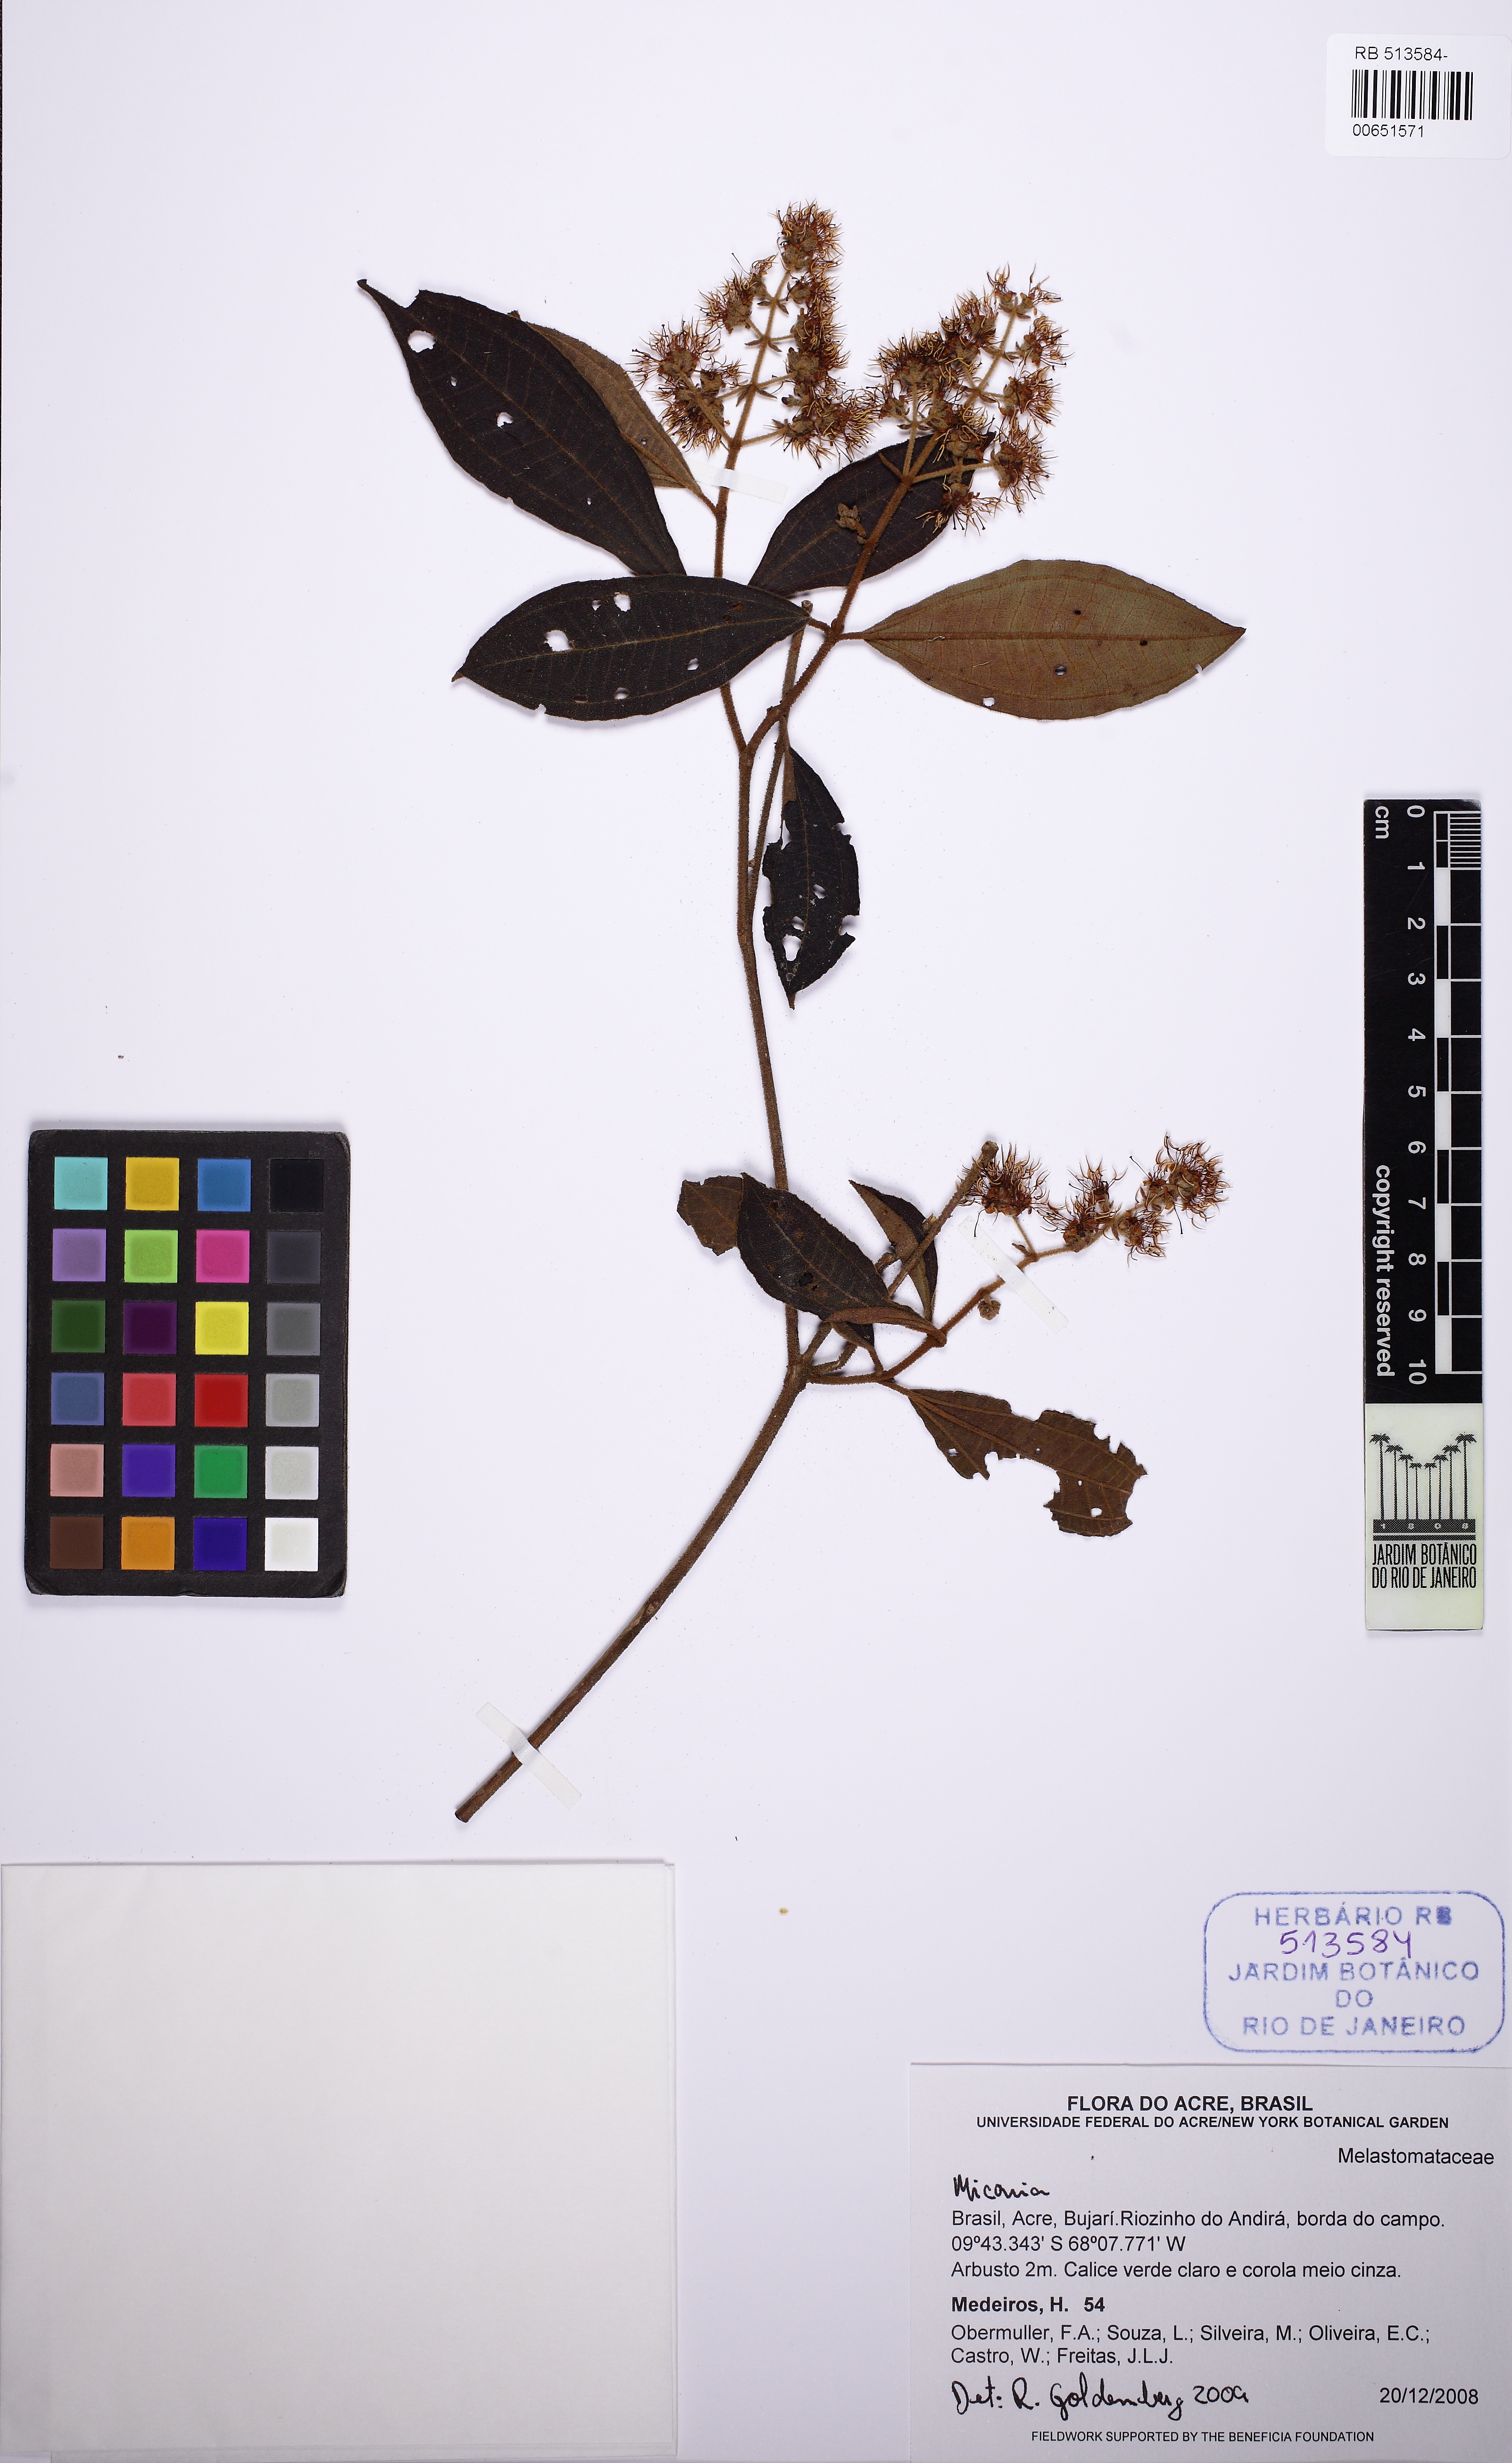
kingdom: Plantae
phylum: Tracheophyta
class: Magnoliopsida
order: Myrtales
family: Melastomataceae
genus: Miconia
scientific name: Miconia
